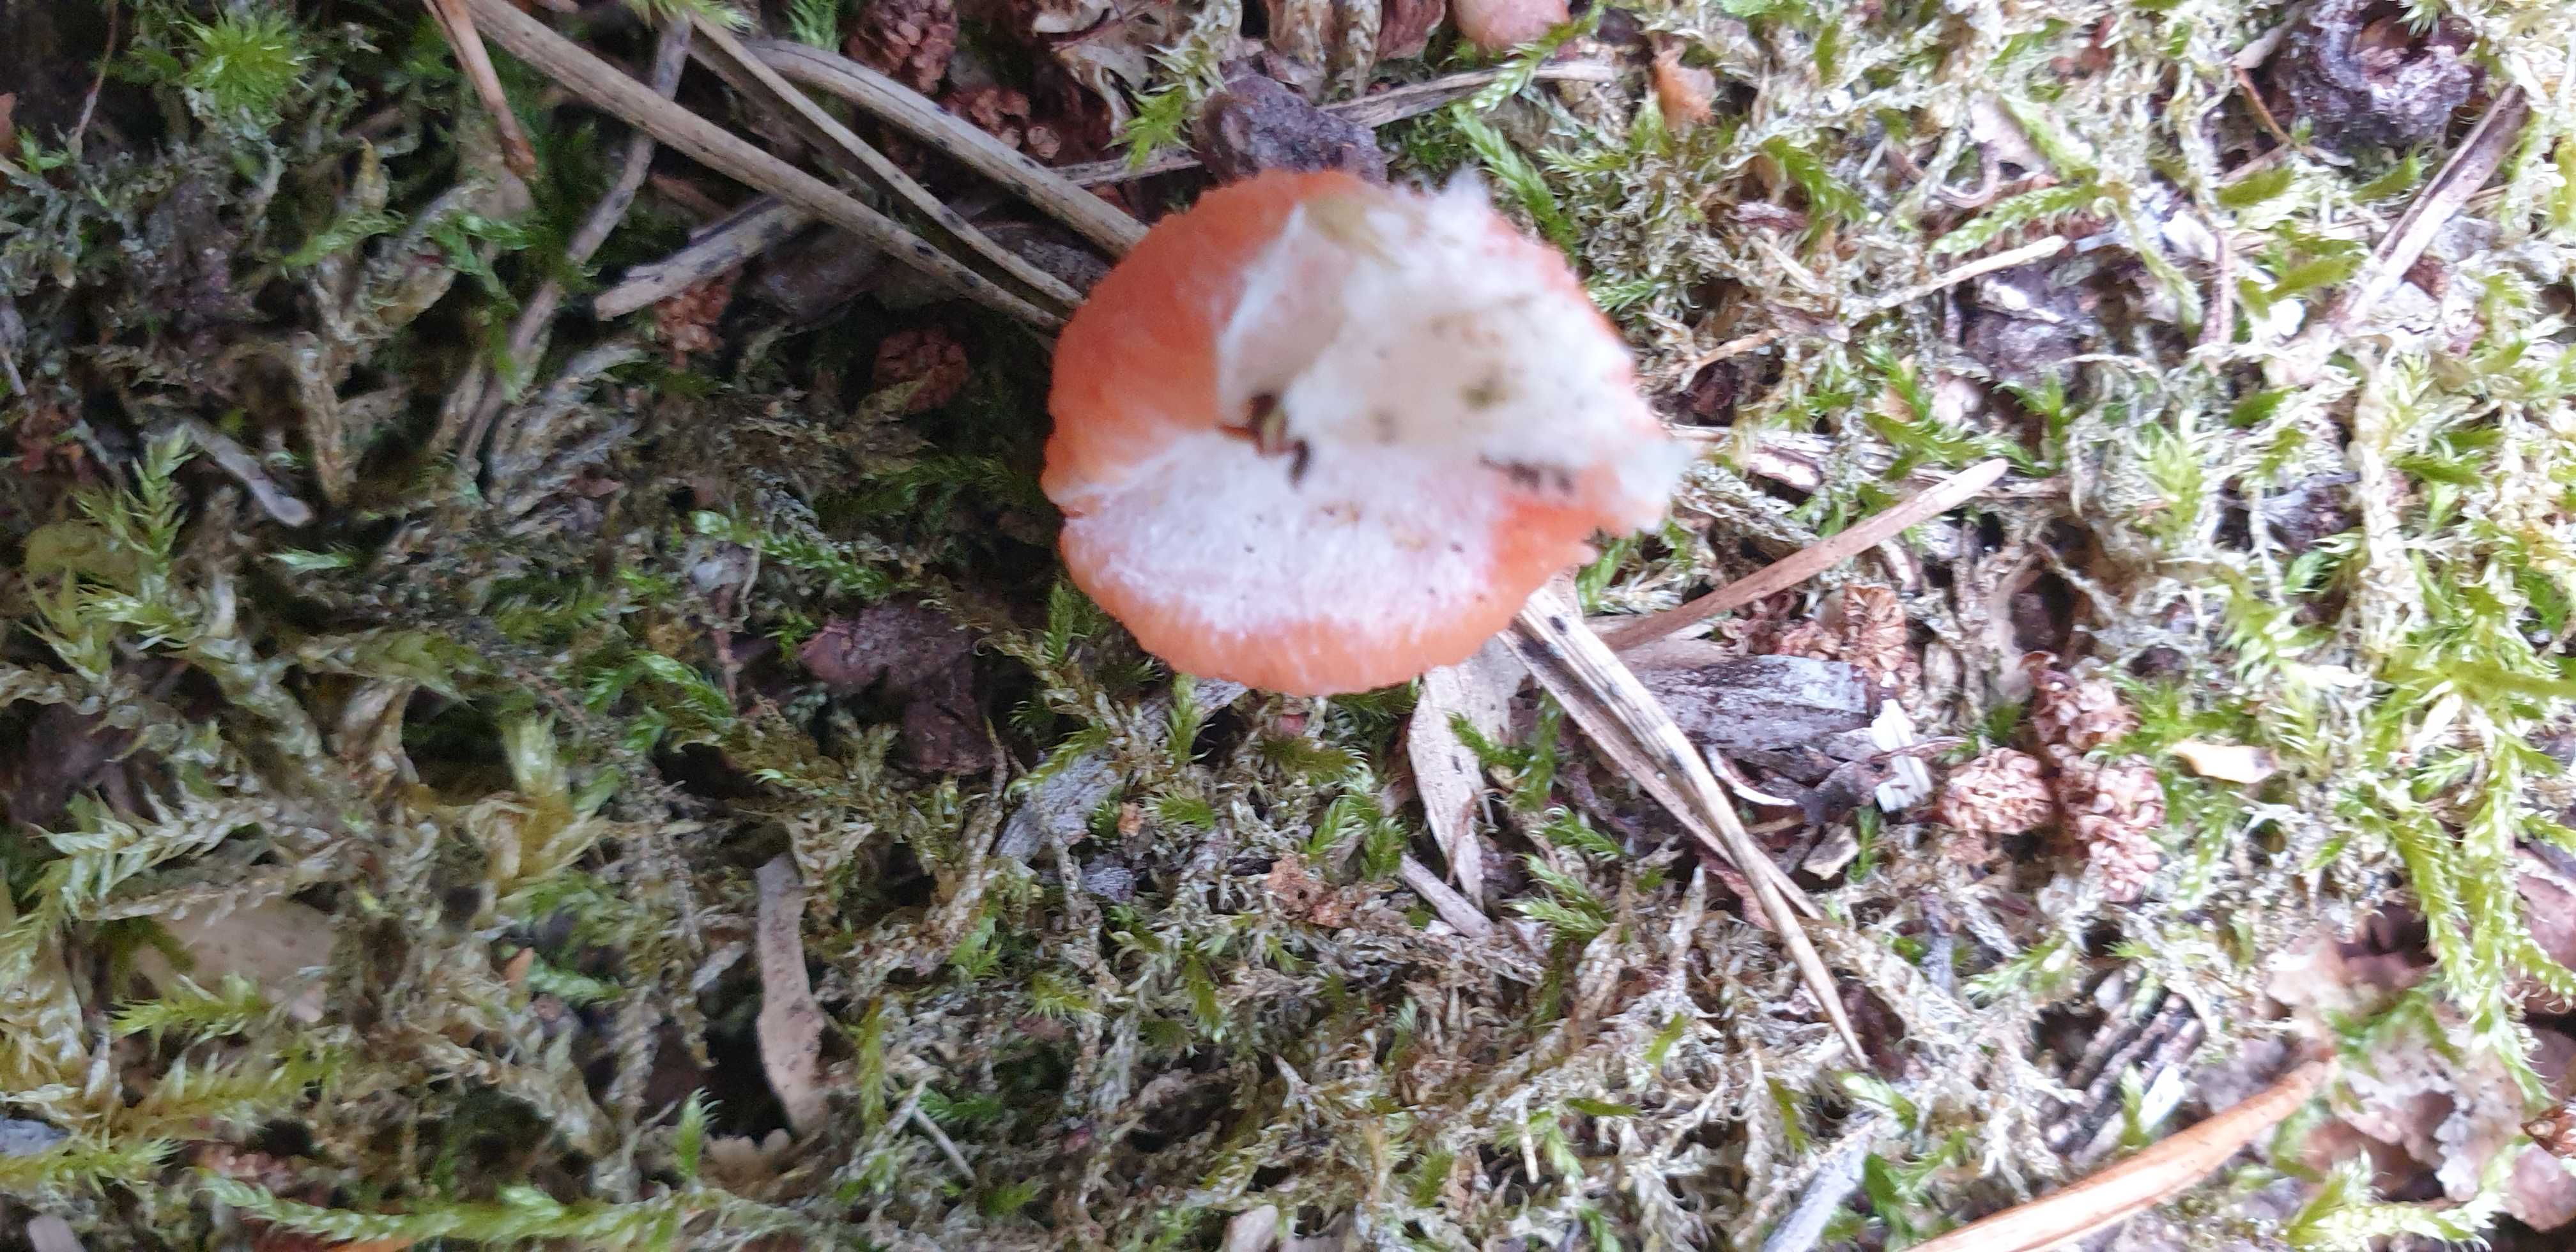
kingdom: Protozoa
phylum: Mycetozoa
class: Myxomycetes
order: Cribrariales
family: Tubiferaceae
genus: Tubifera
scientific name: Tubifera ferruginosa
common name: kanel-støvrør
